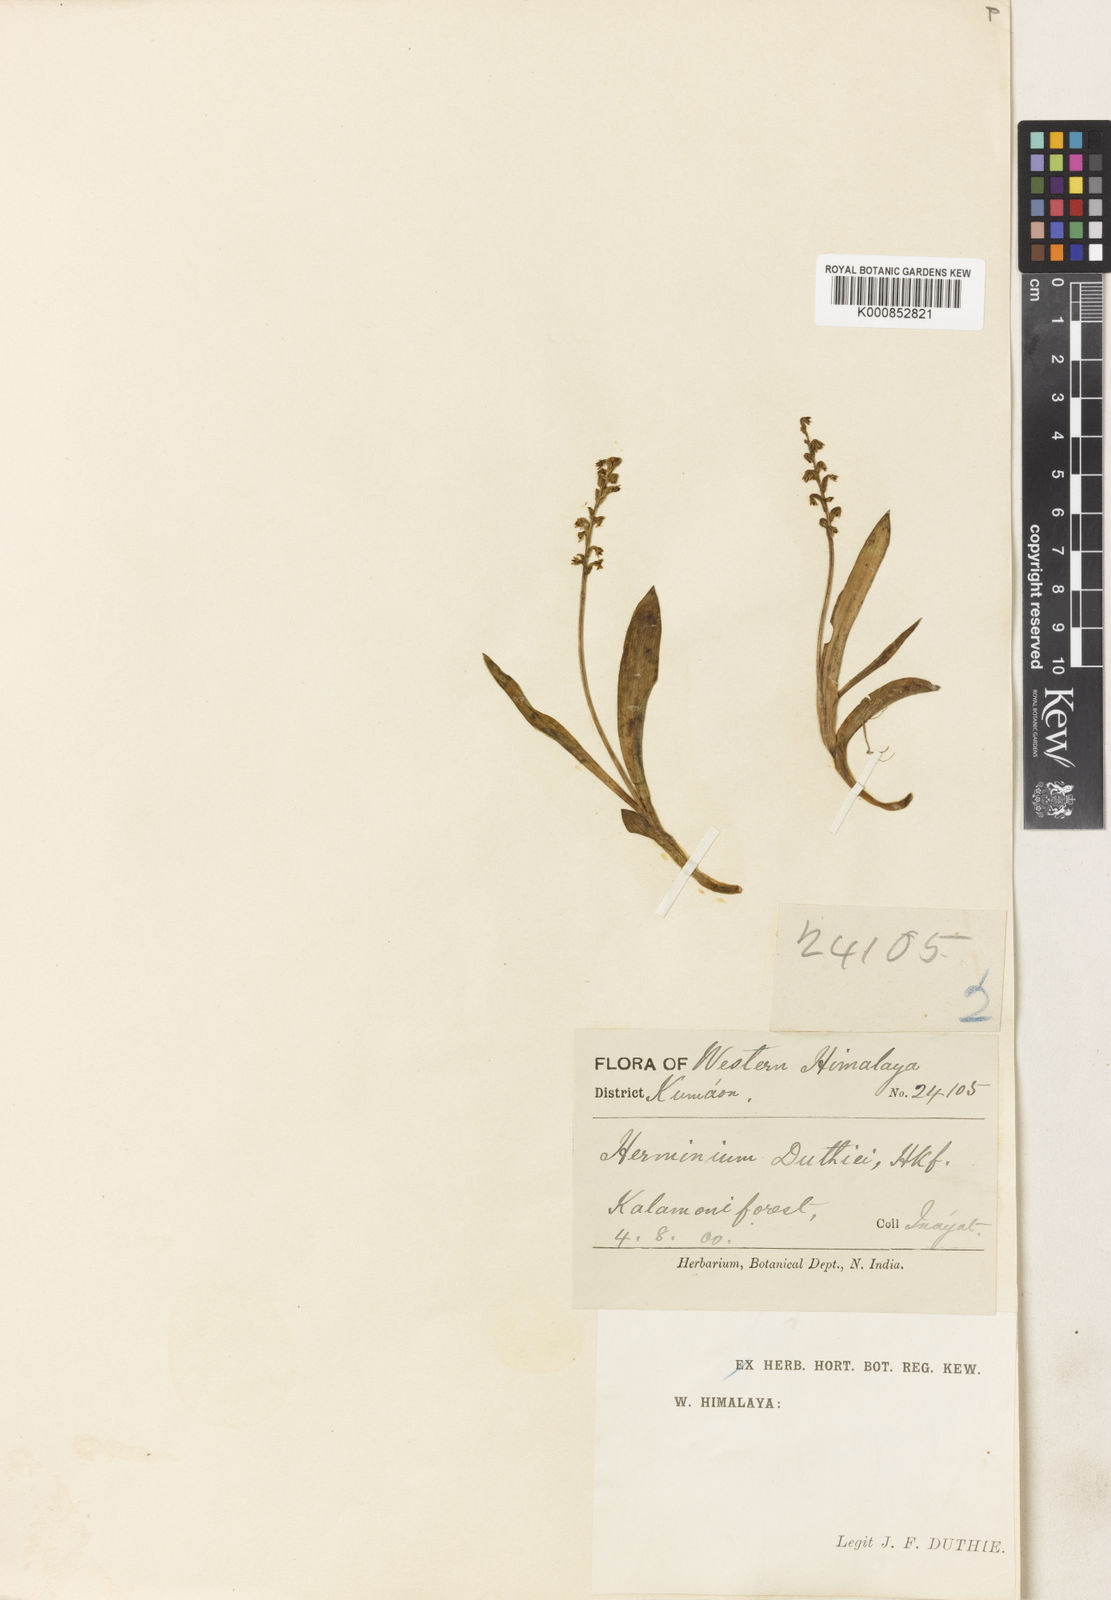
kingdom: Plantae
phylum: Tracheophyta
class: Liliopsida
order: Asparagales
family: Orchidaceae
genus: Herminium
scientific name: Herminium josephi
